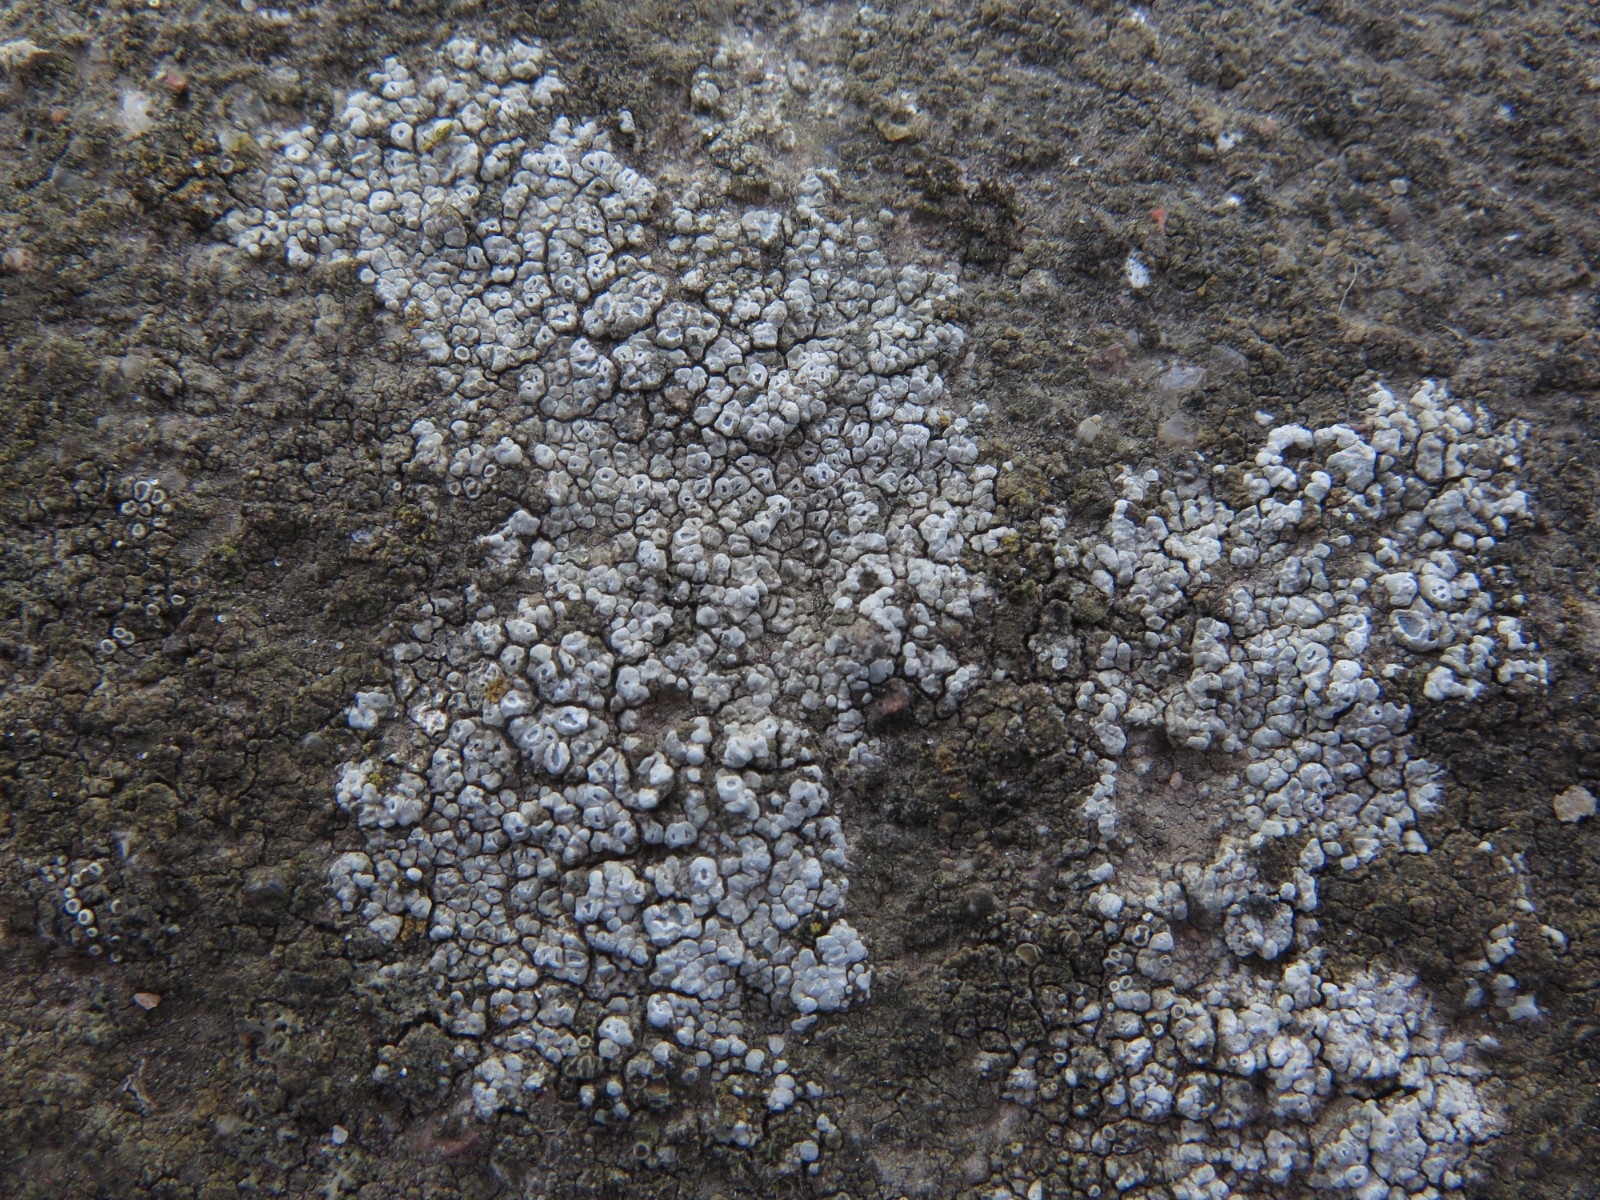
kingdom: Fungi
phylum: Ascomycota
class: Lecanoromycetes
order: Pertusariales
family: Megasporaceae
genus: Circinaria
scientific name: Circinaria contorta
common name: indviklet hulskivelav
